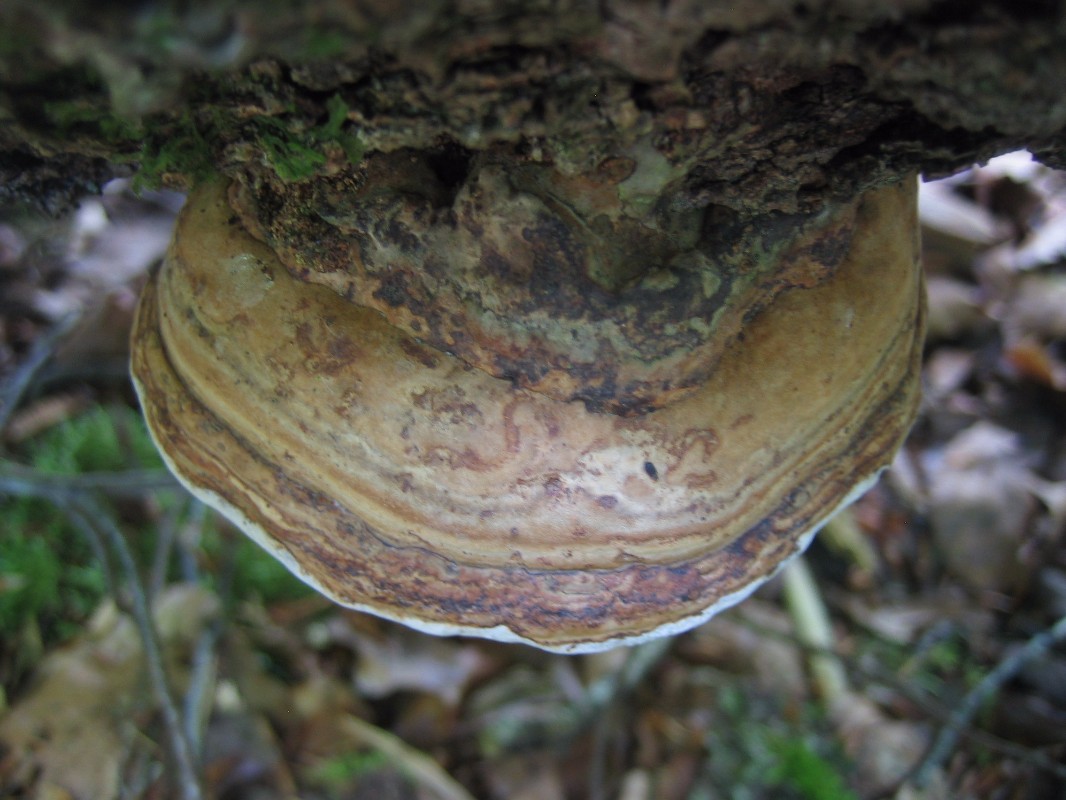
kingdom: Fungi
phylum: Basidiomycota
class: Agaricomycetes
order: Polyporales
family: Polyporaceae
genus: Fomes
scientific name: Fomes fomentarius
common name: tøndersvamp
